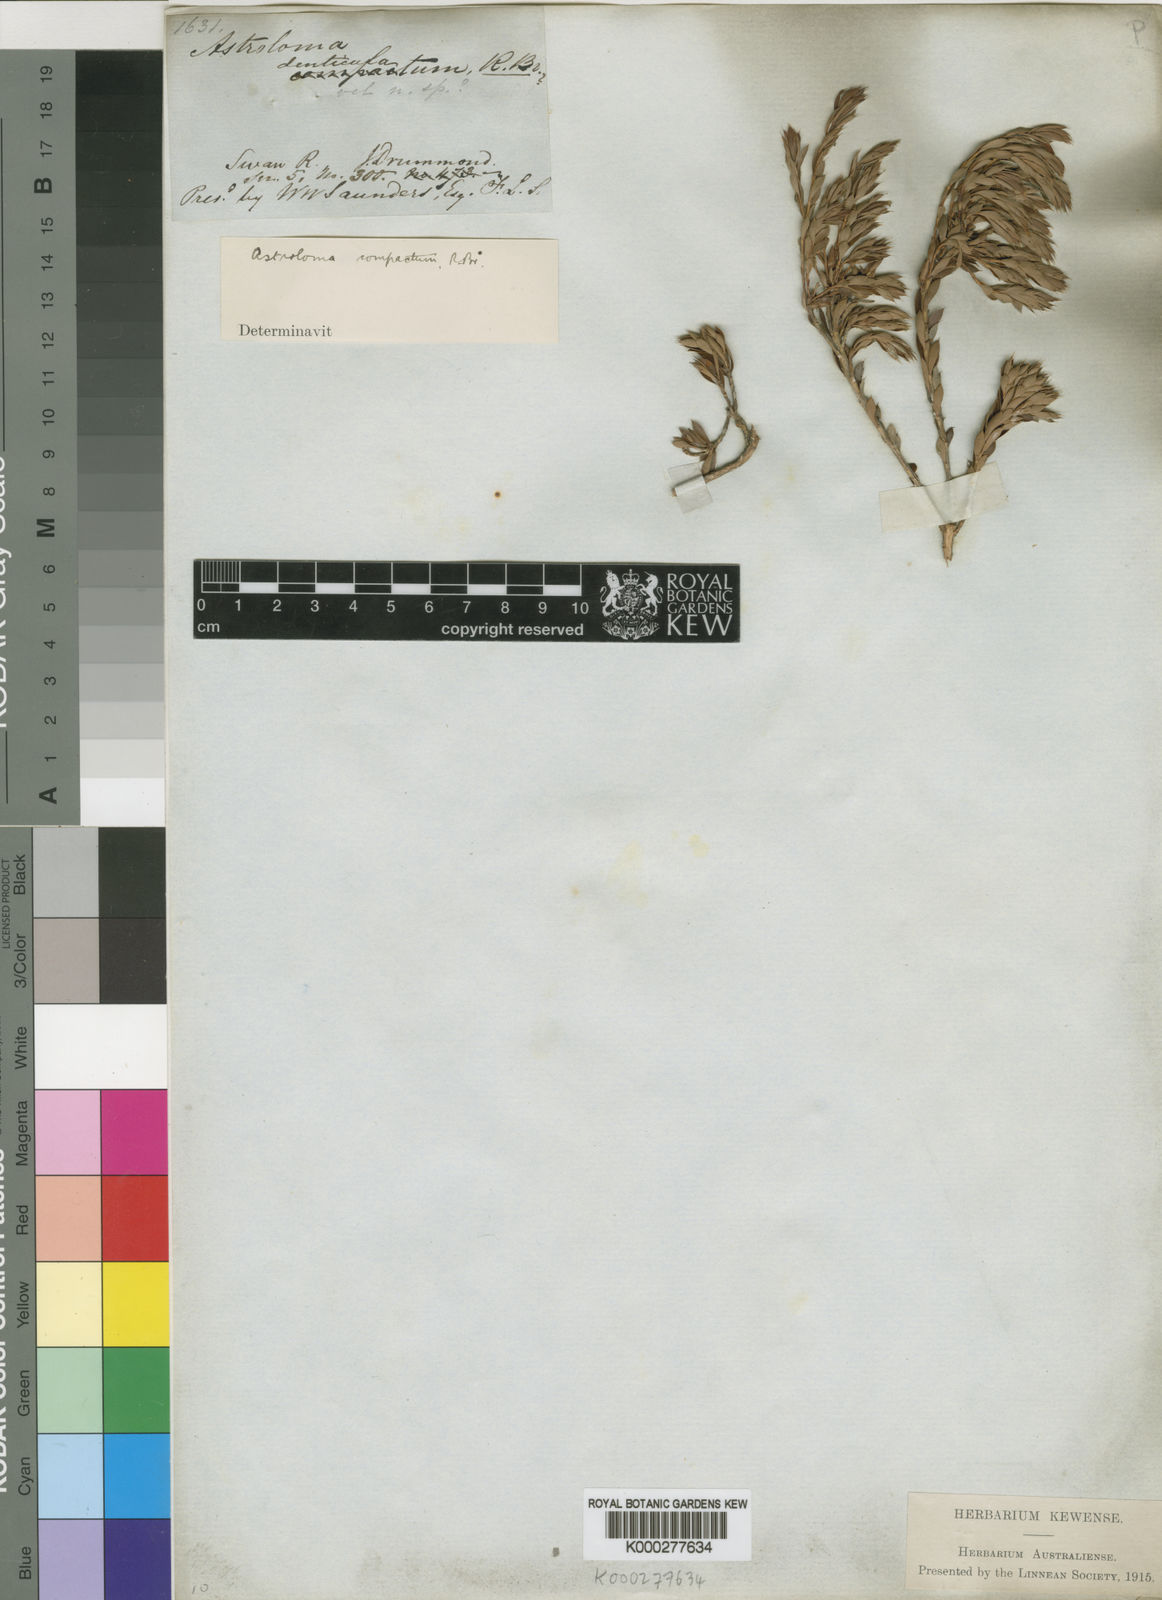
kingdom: Plantae
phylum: Tracheophyta
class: Magnoliopsida
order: Ericales
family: Ericaceae
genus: Styphelia
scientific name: Styphelia compacta
